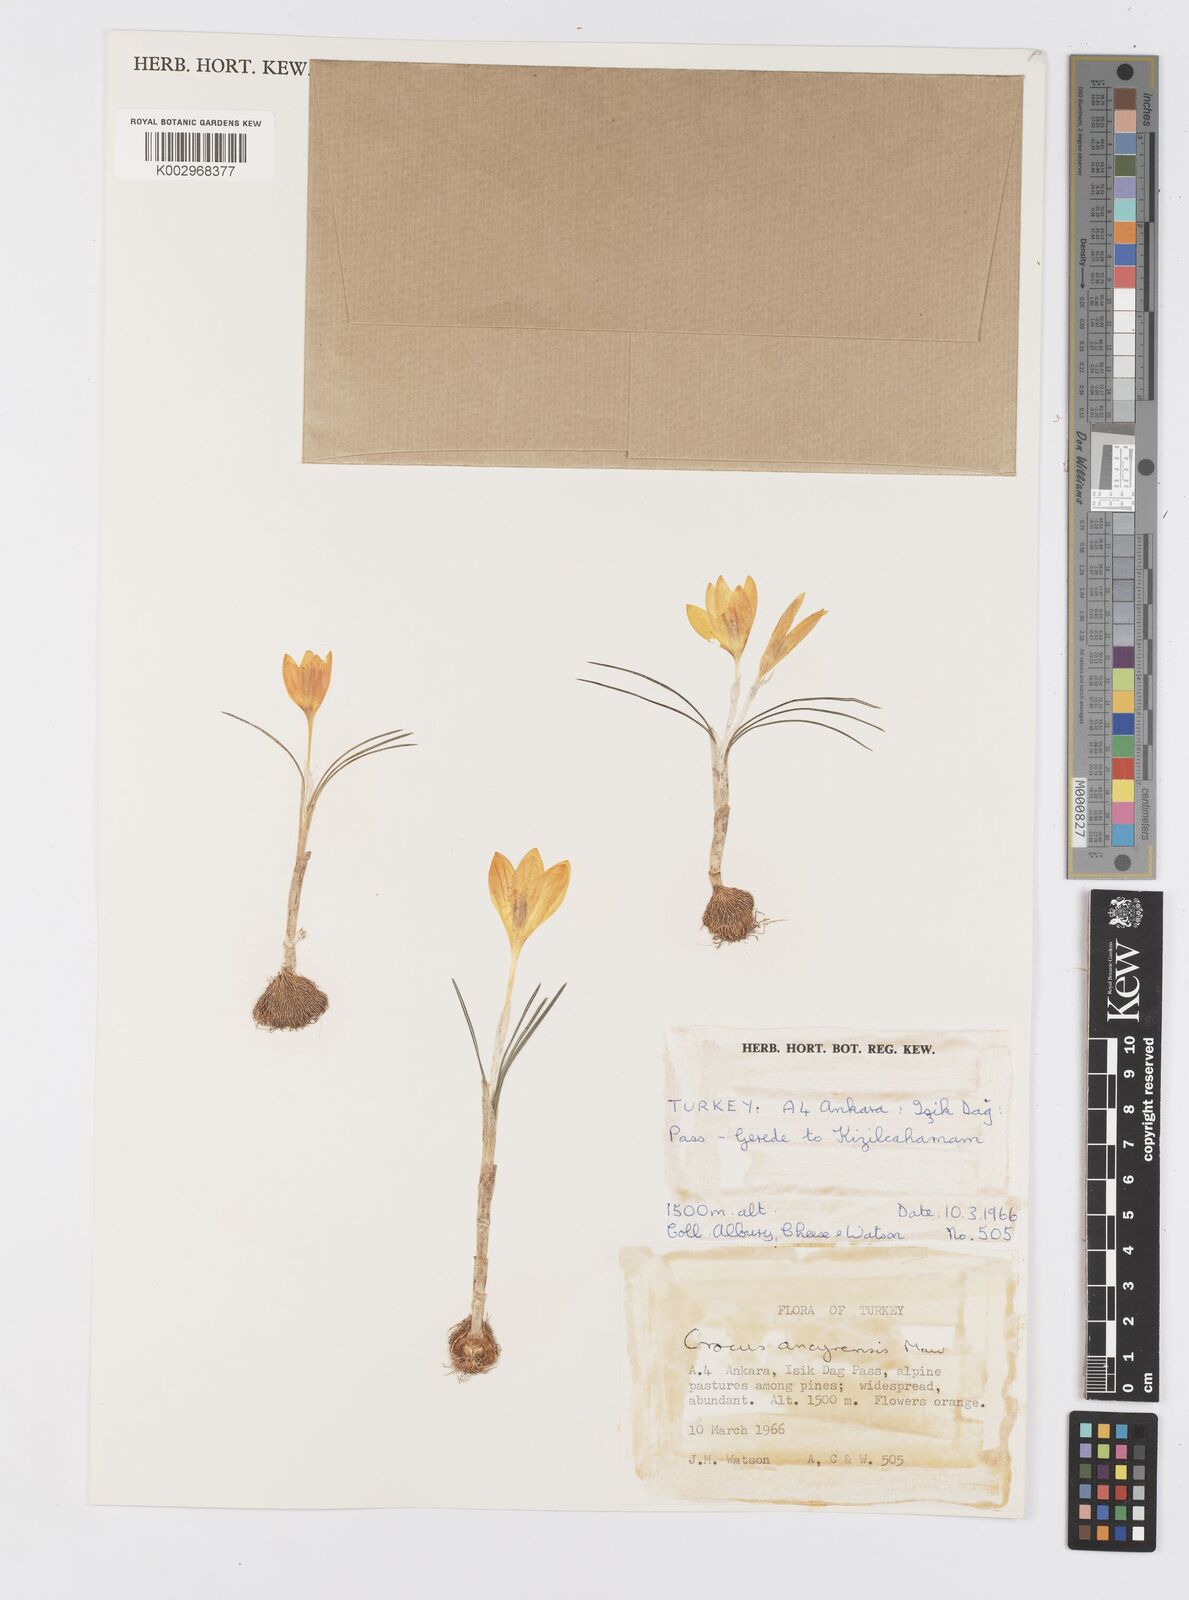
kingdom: Plantae
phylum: Tracheophyta
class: Liliopsida
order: Asparagales
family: Iridaceae
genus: Crocus
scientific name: Crocus ancyrensis
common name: Ankara crocus
